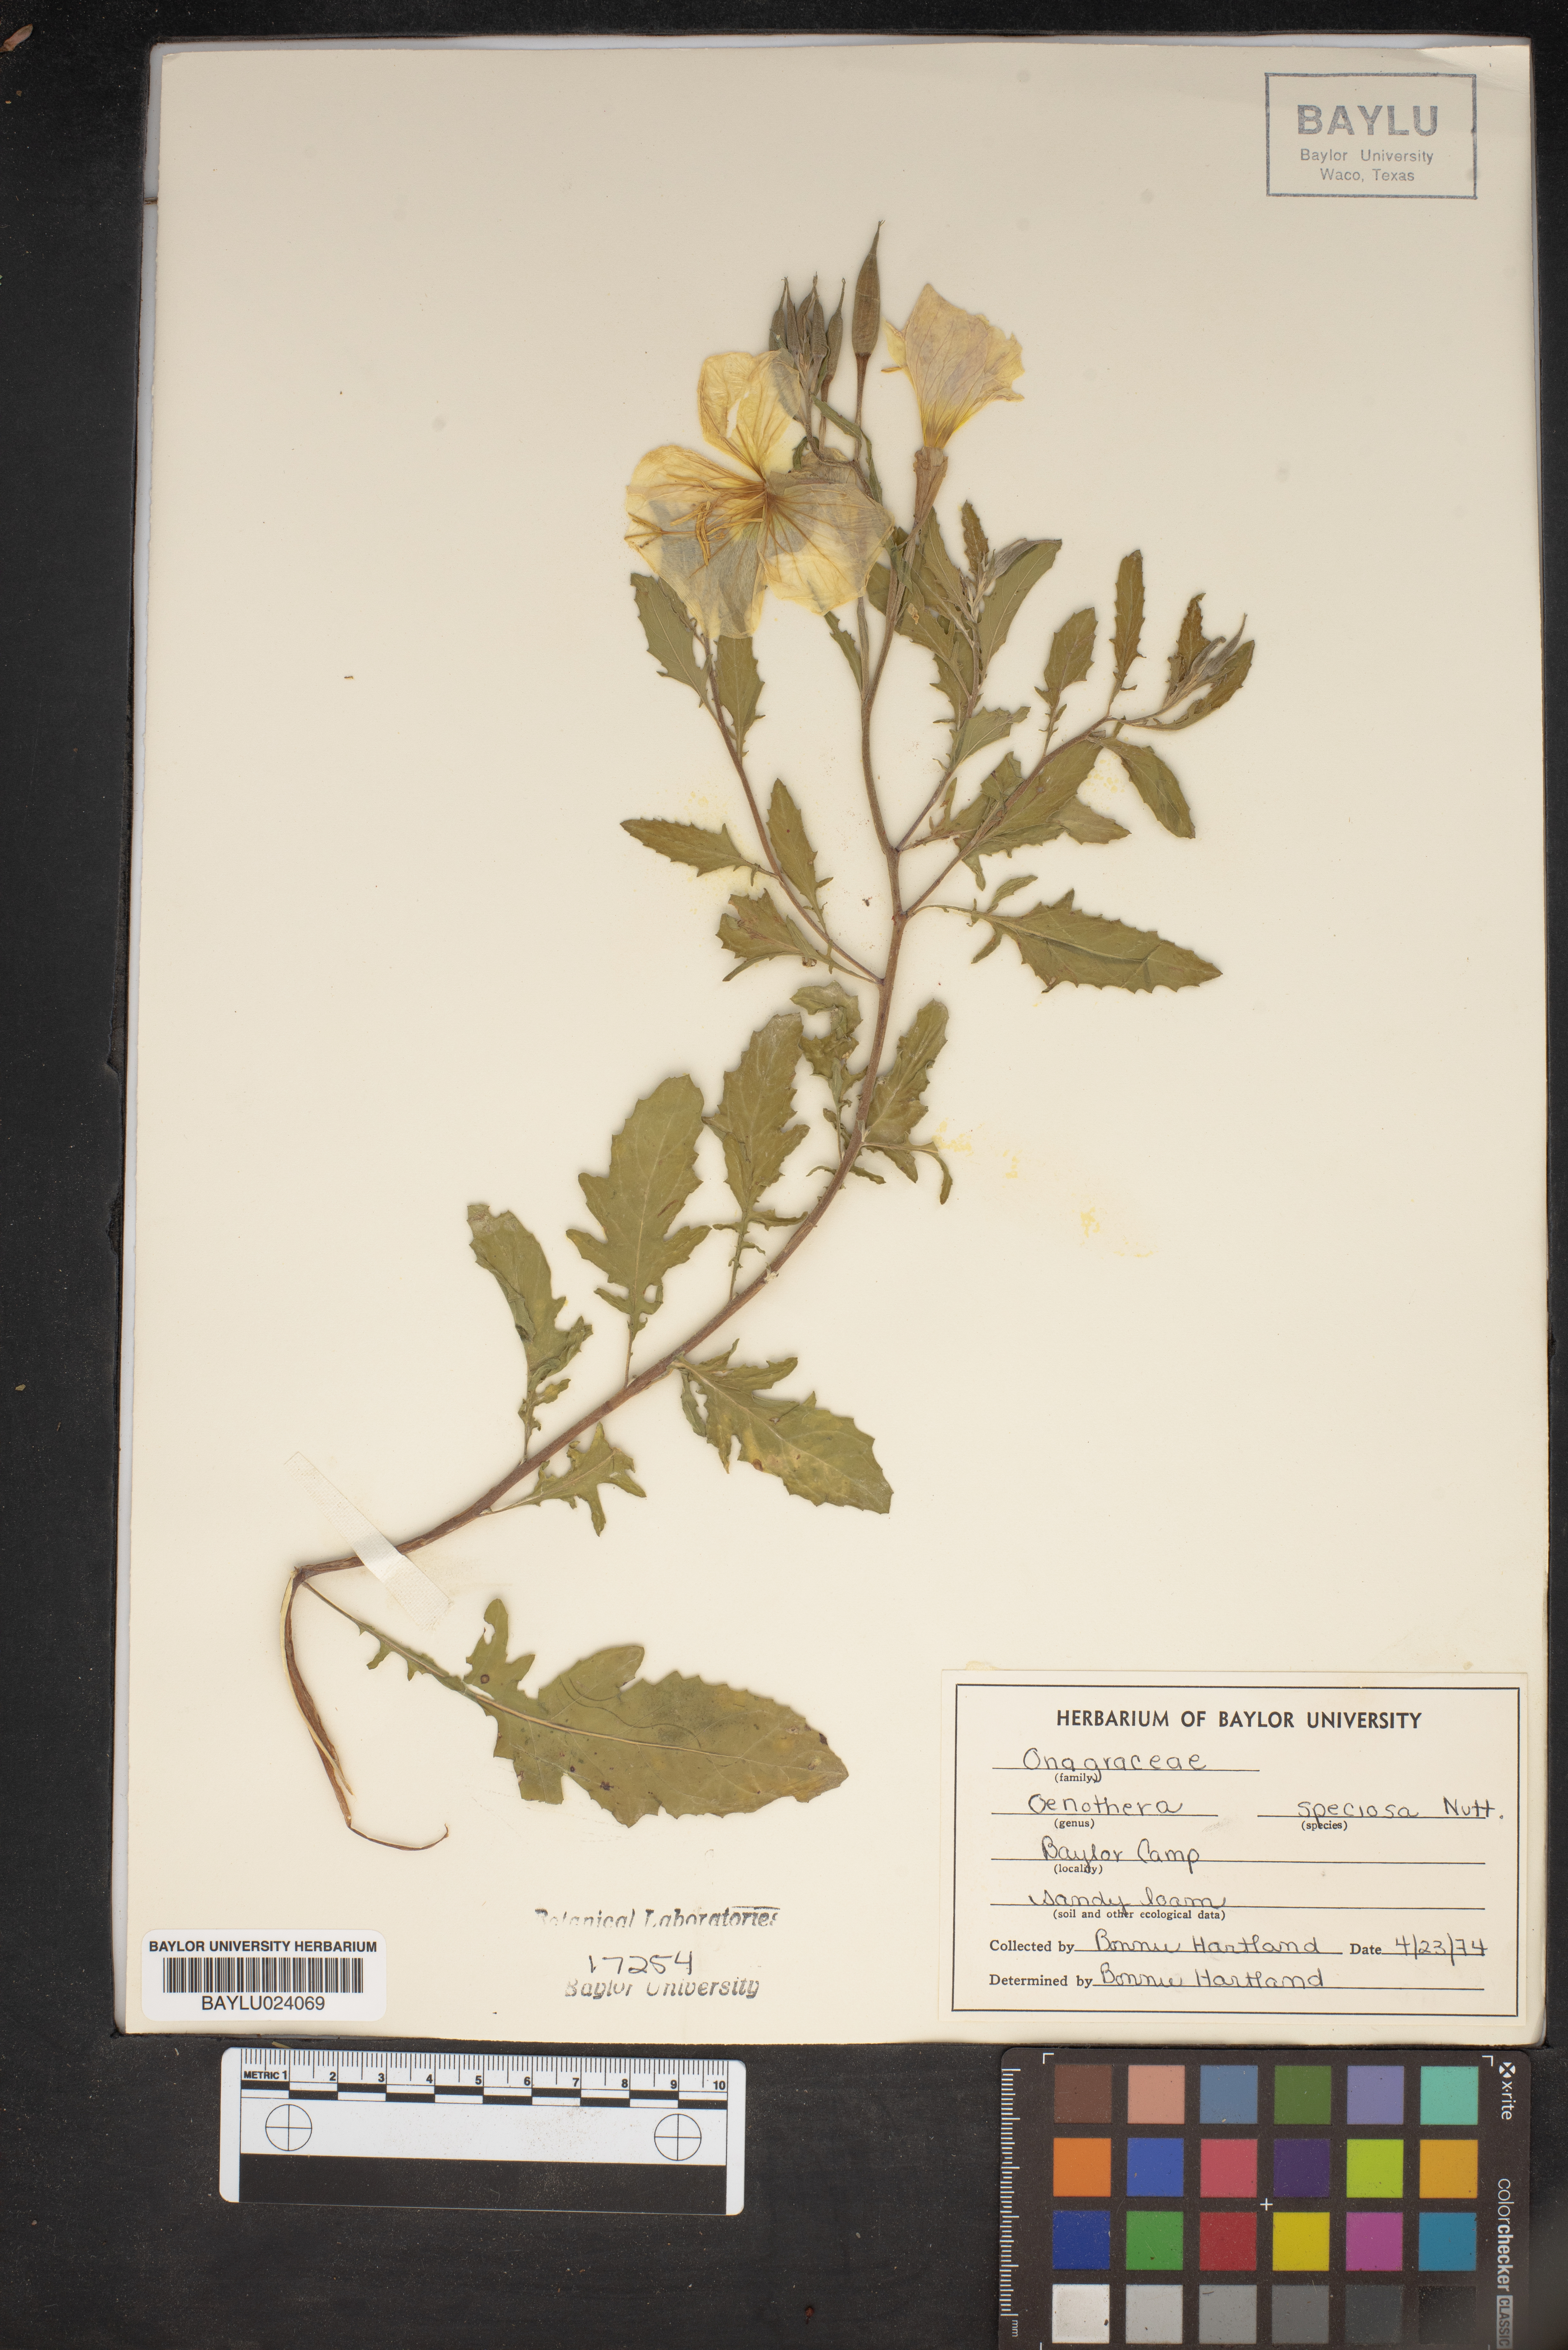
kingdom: Plantae
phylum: Tracheophyta
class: Magnoliopsida
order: Myrtales
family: Onagraceae
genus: Oenothera
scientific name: Oenothera speciosa
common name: White evening-primrose
